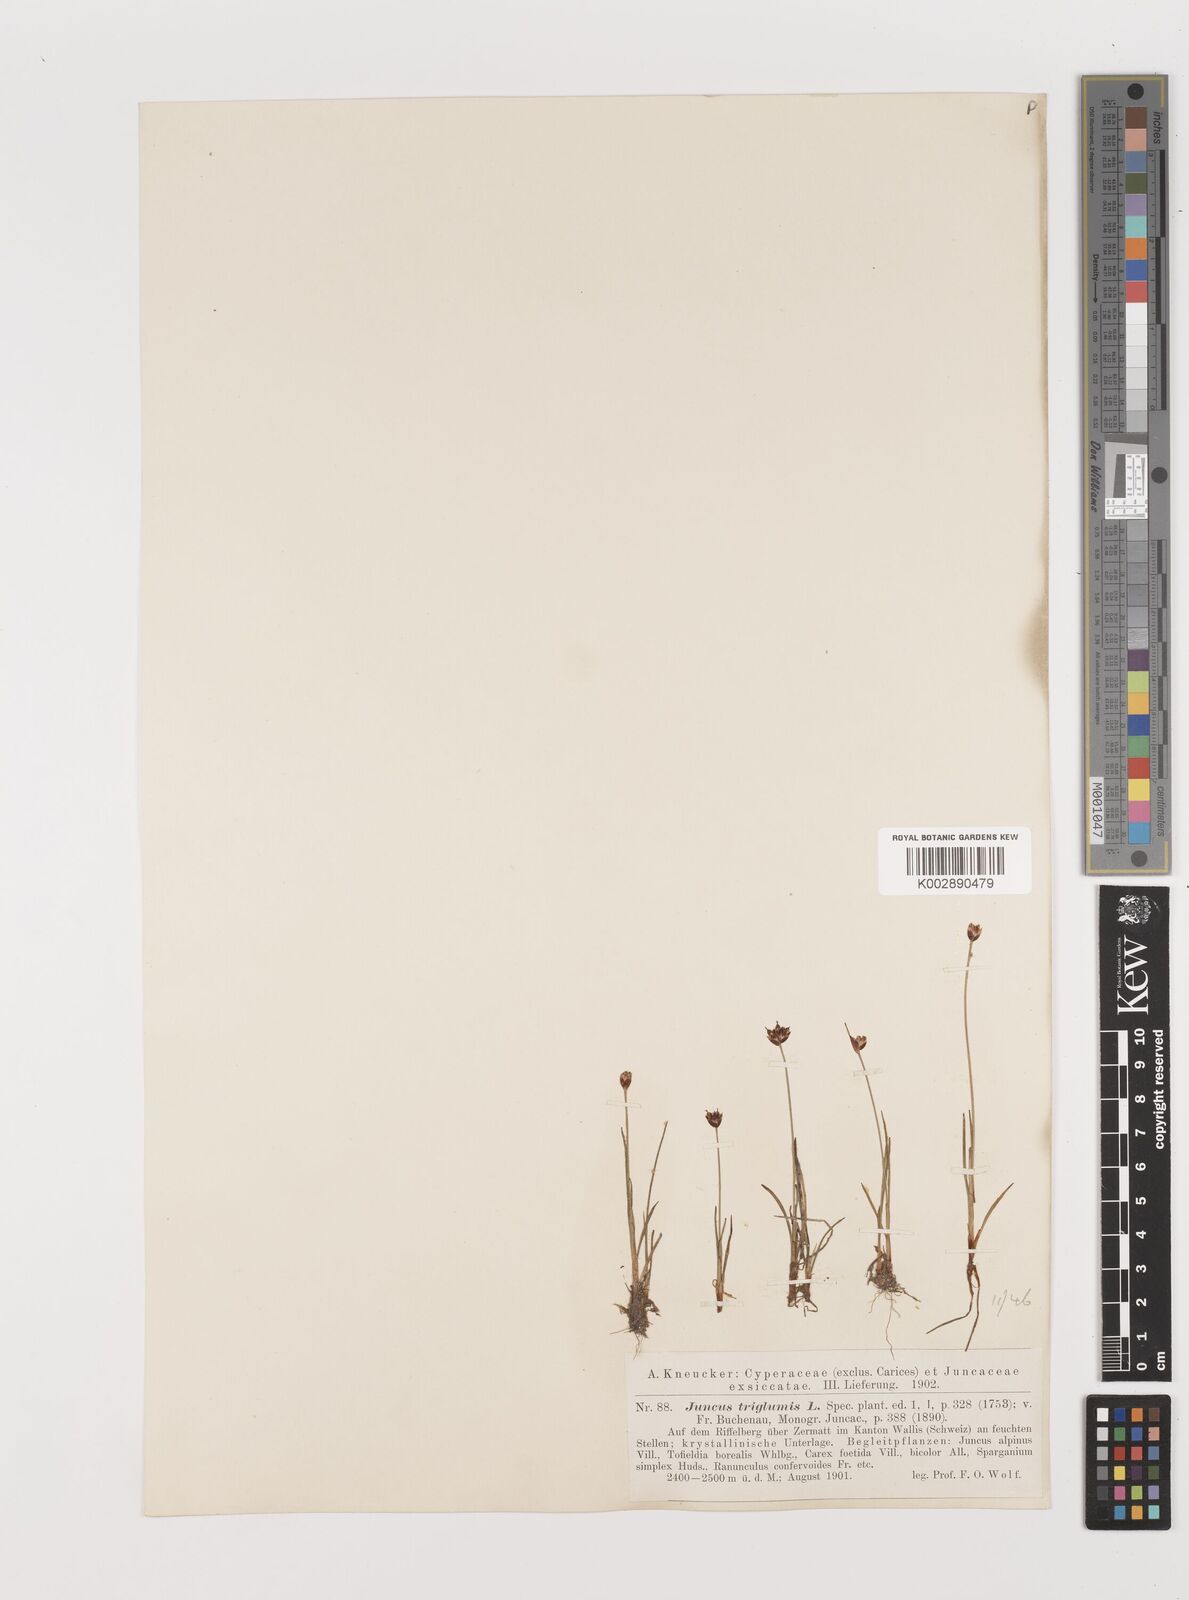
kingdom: Plantae
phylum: Tracheophyta
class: Liliopsida
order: Poales
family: Juncaceae
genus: Juncus
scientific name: Juncus triglumis
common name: Three-flowered rush
